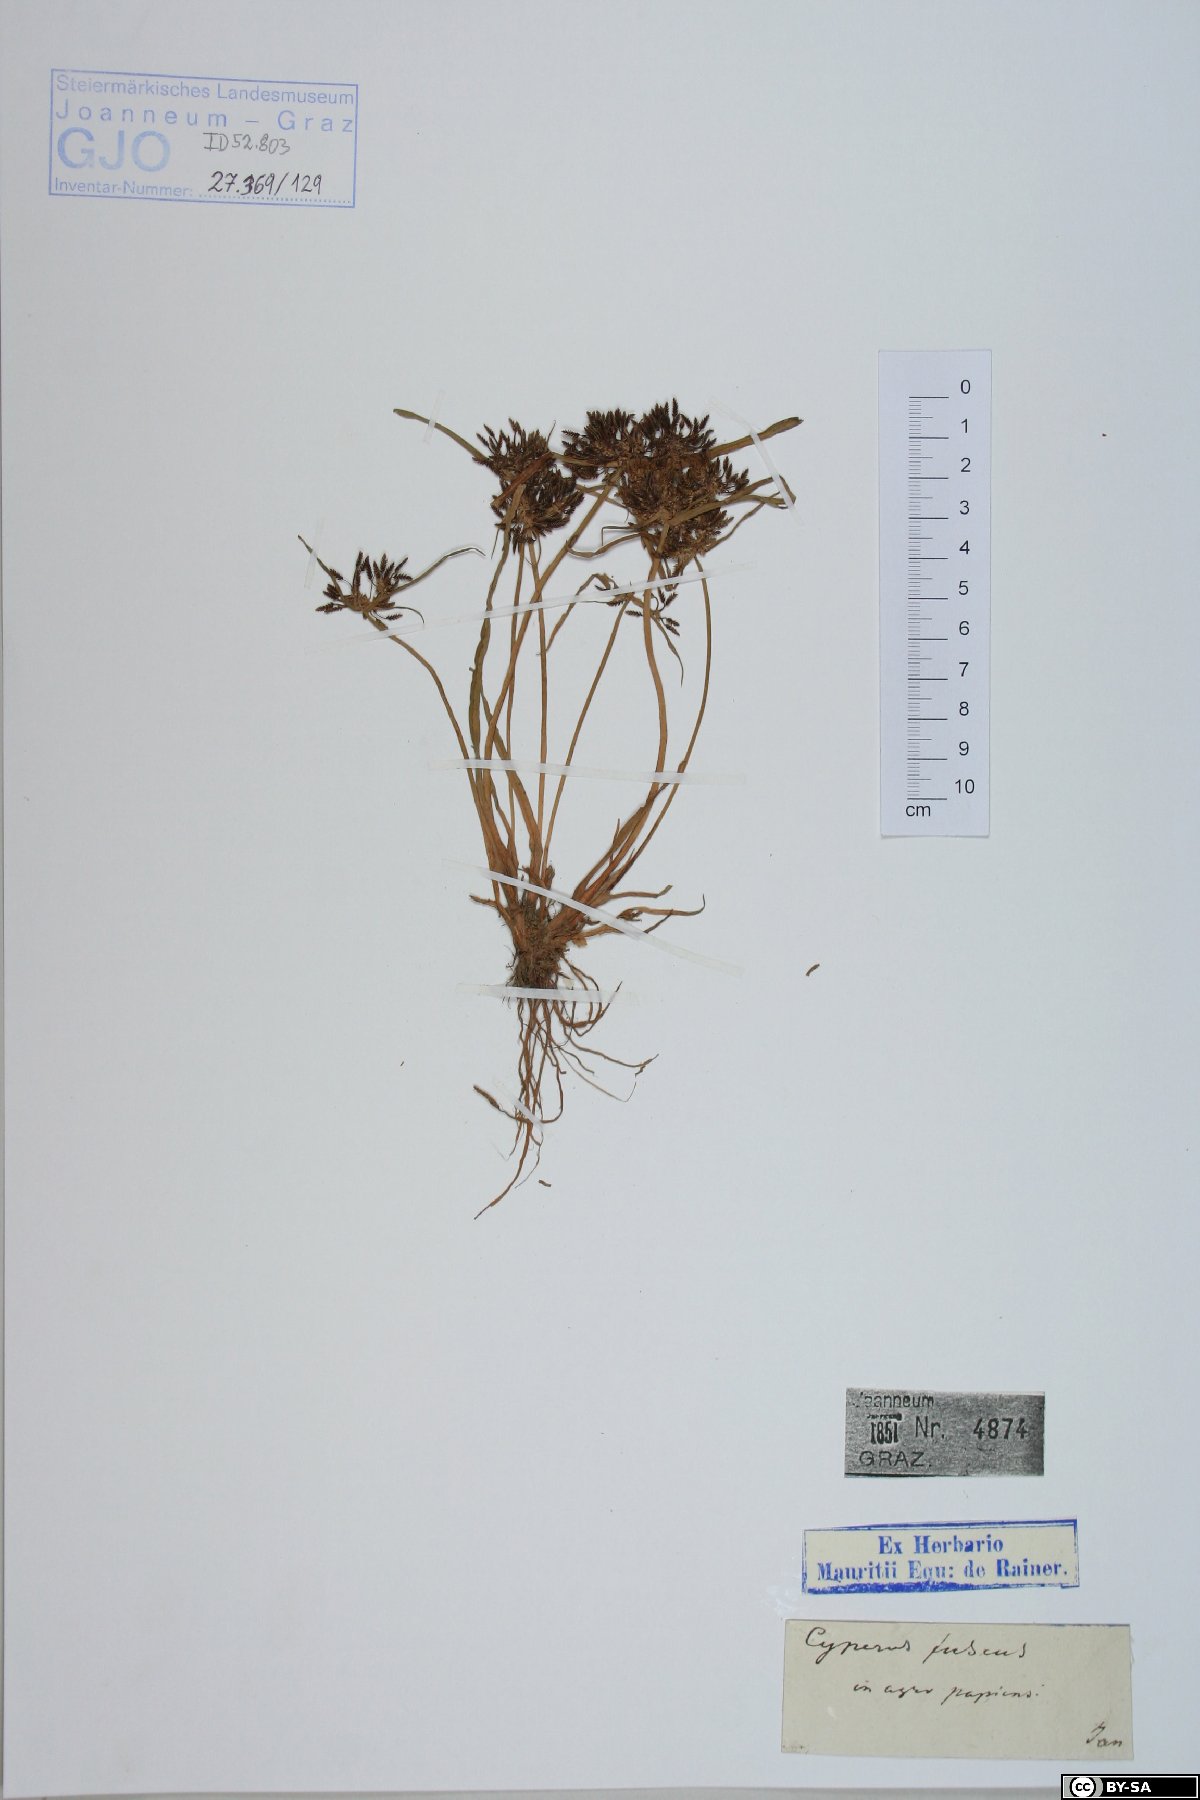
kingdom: Plantae
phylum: Tracheophyta
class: Liliopsida
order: Poales
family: Cyperaceae
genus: Cyperus
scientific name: Cyperus fuscus
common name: Brown galingale
